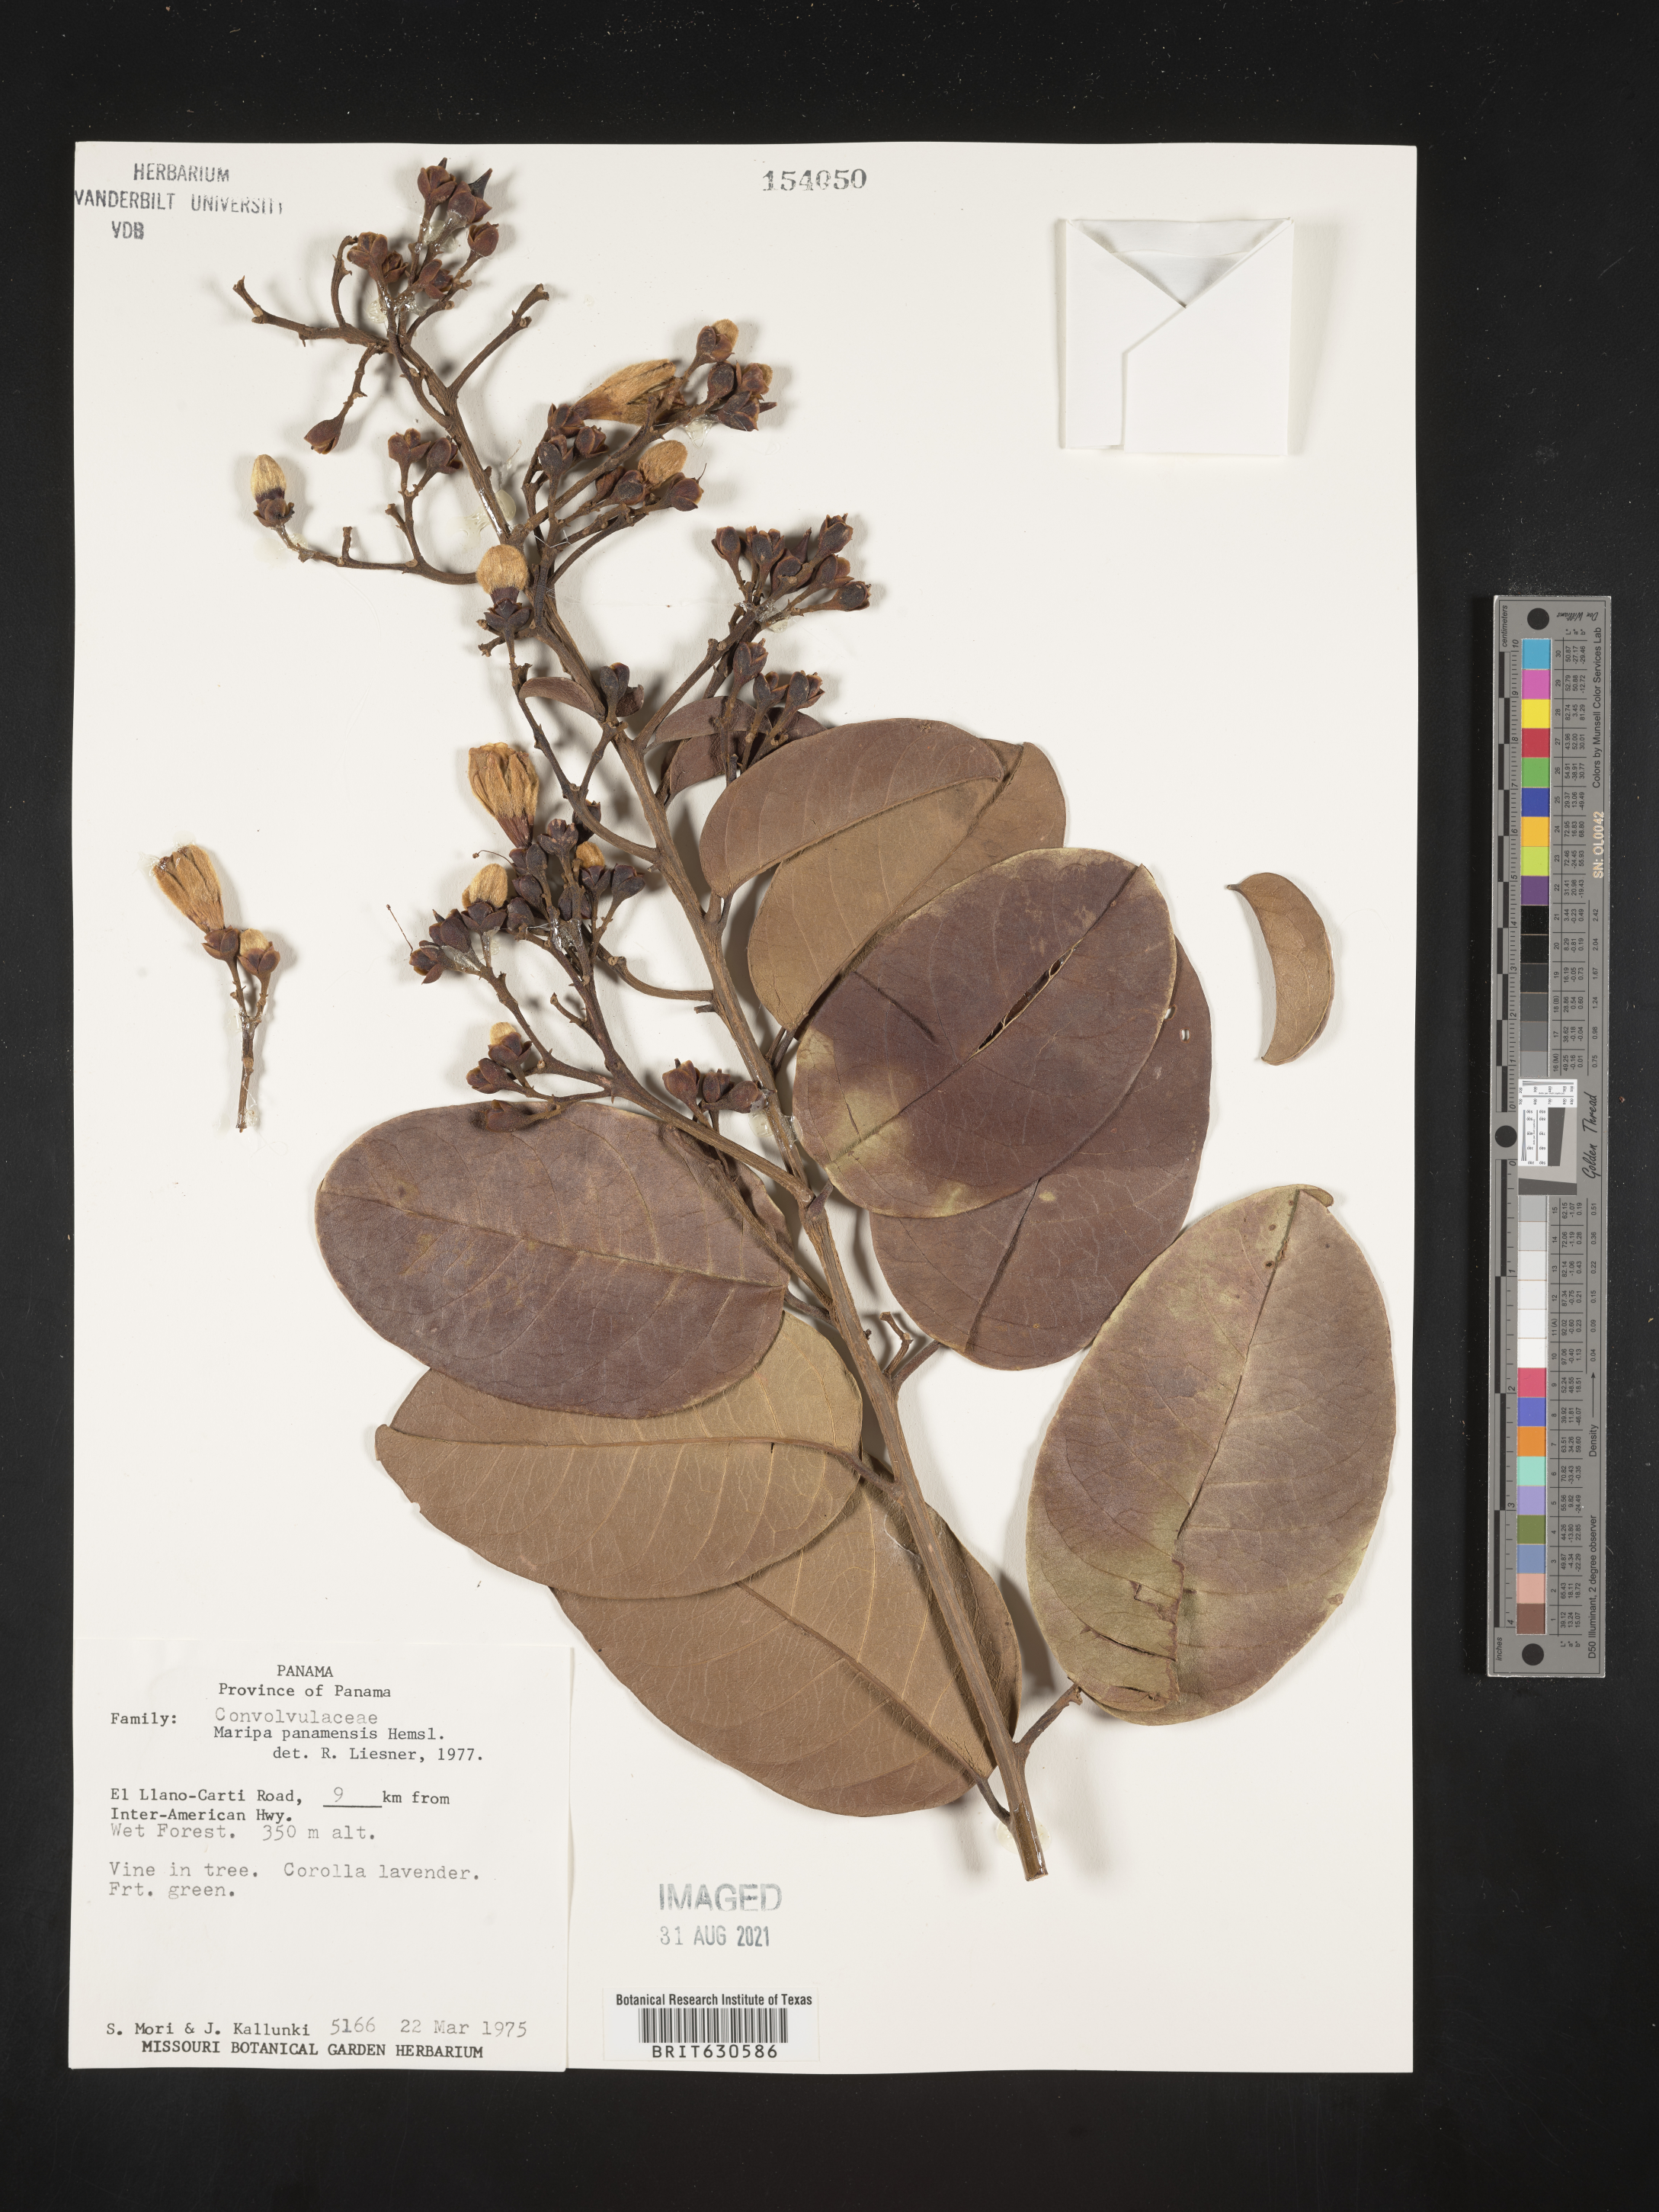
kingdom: Plantae
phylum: Tracheophyta
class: Magnoliopsida
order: Solanales
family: Convolvulaceae
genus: Maripa
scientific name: Maripa panamensis
